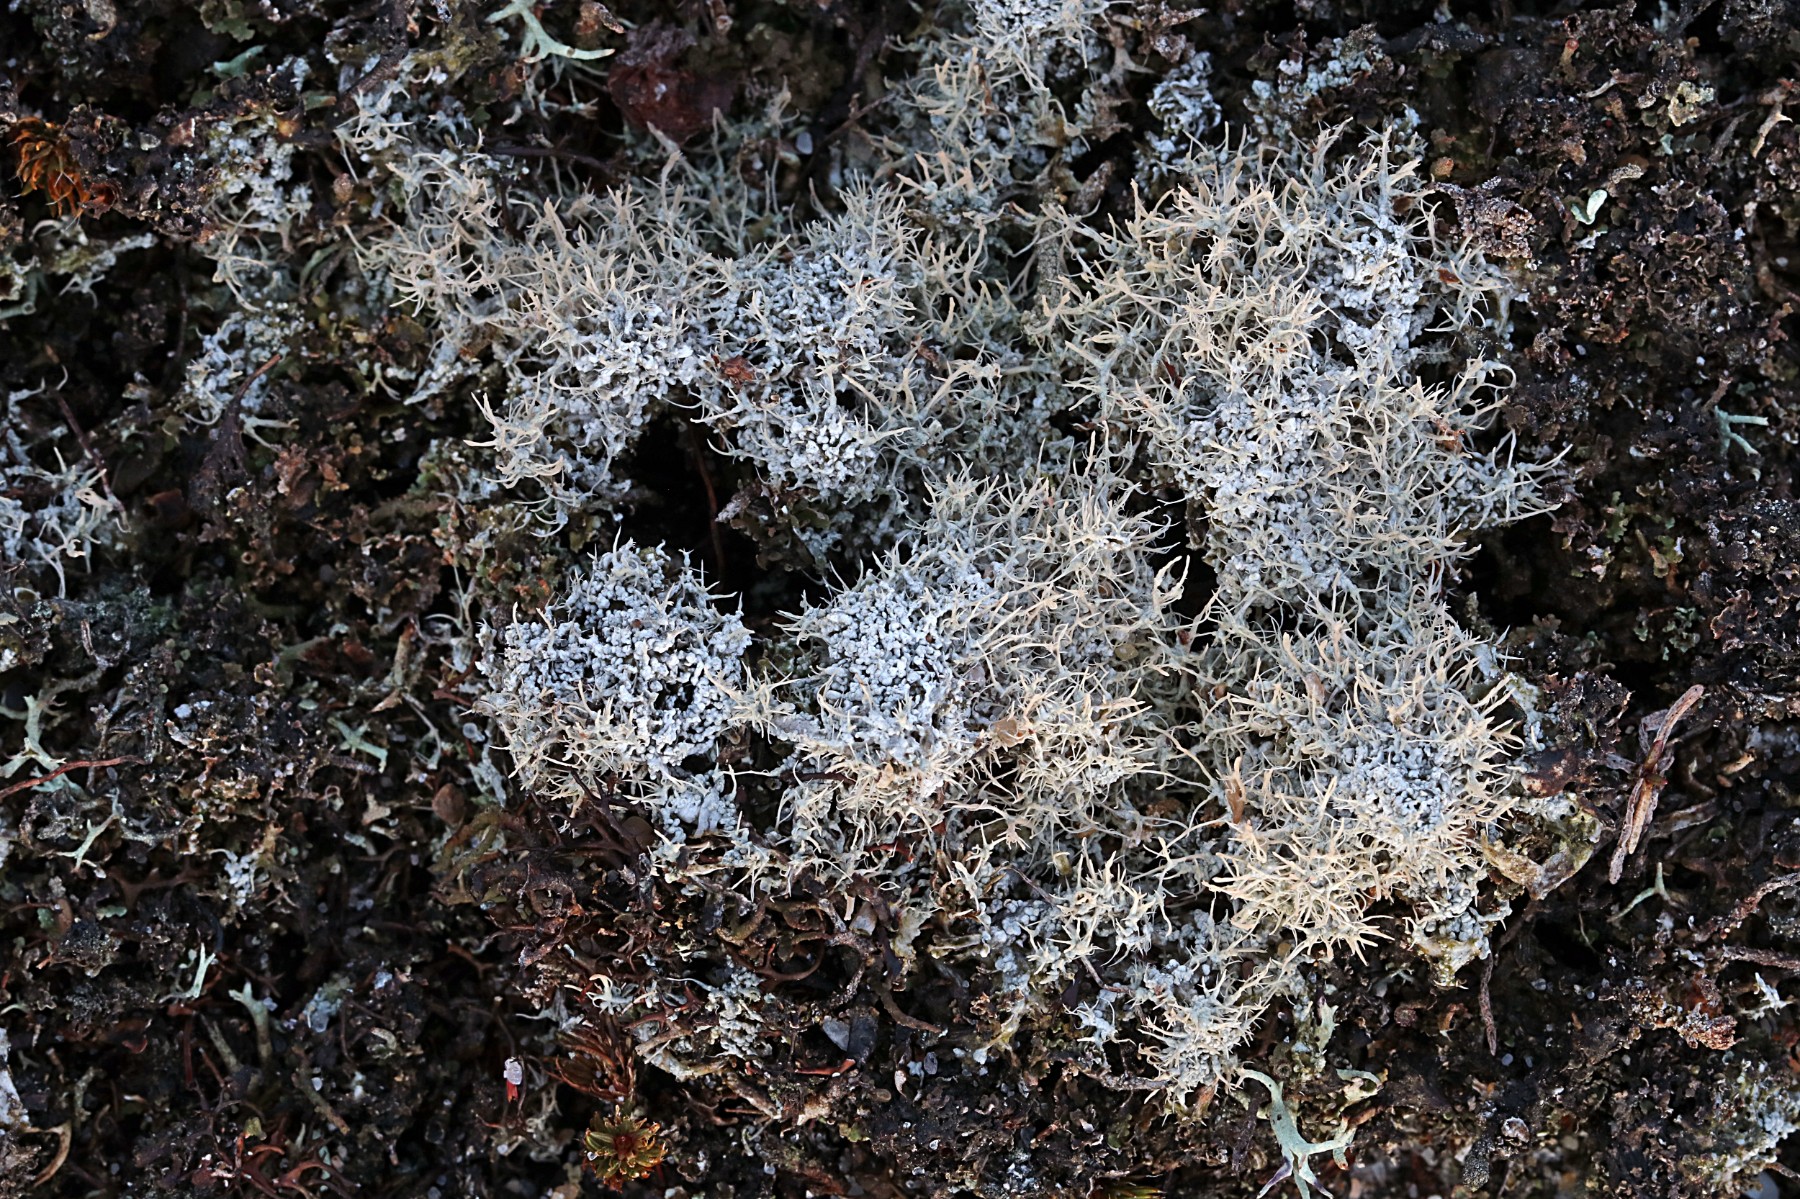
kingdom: Fungi
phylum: Ascomycota
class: Lecanoromycetes
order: Pertusariales
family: Ochrolechiaceae
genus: Ochrolechia
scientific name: Ochrolechia frigida
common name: fjeld-blegskivelav
